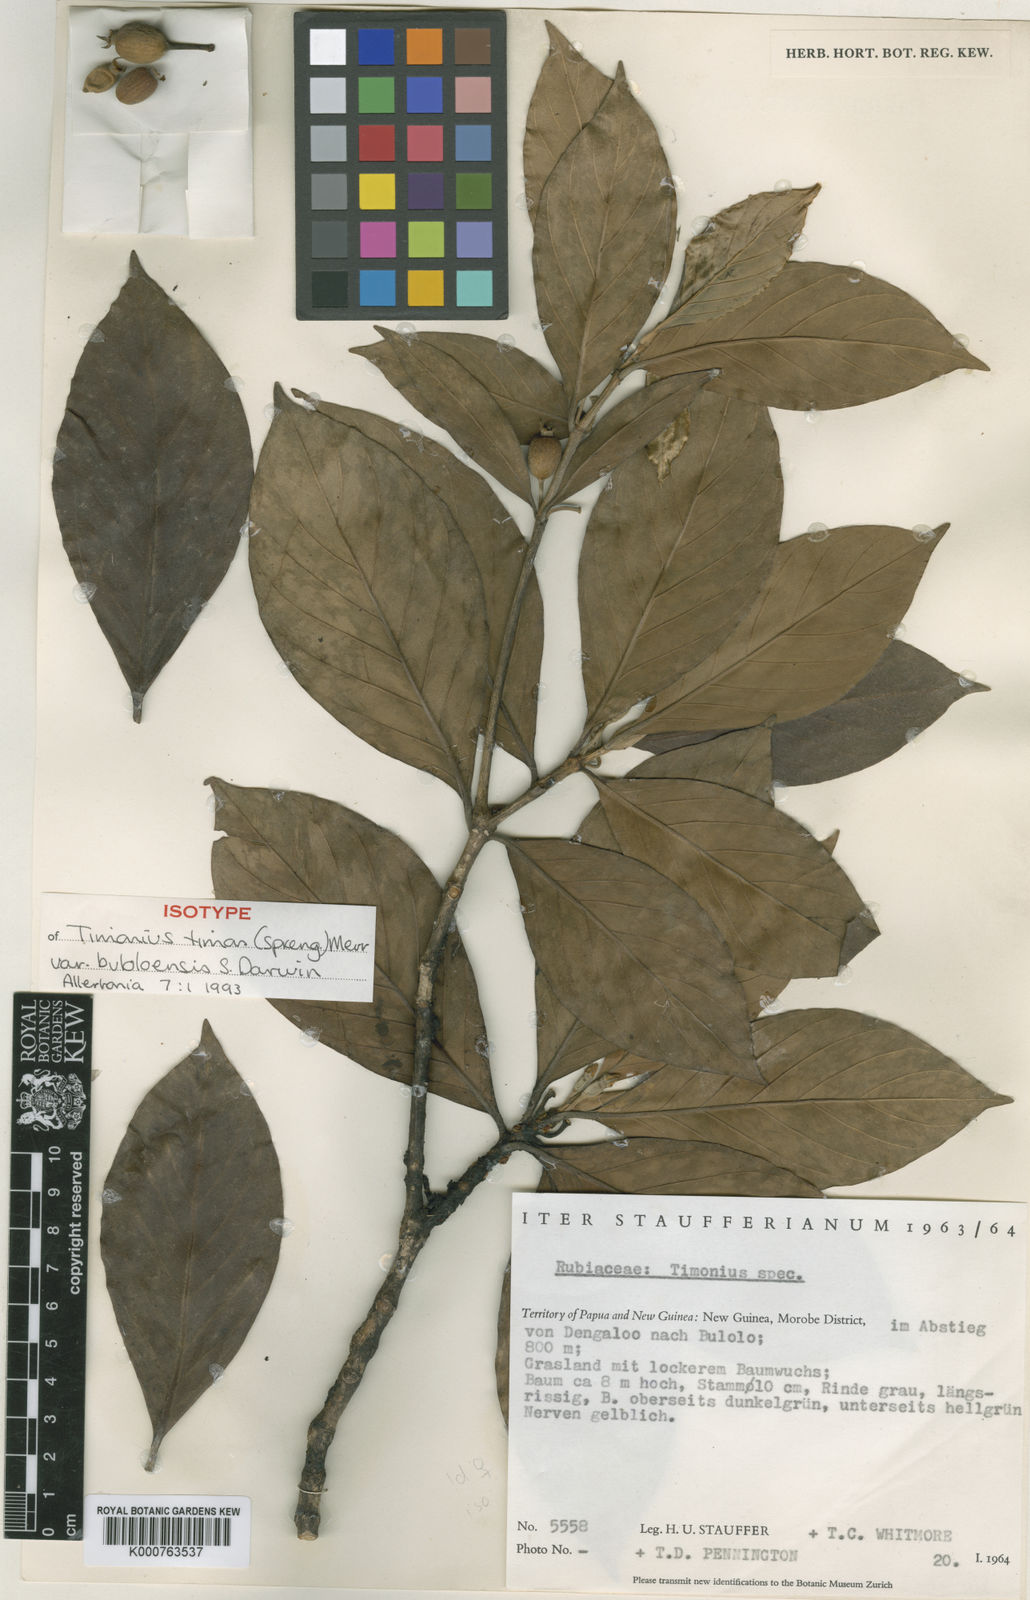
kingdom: Plantae
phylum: Tracheophyta
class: Magnoliopsida
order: Gentianales
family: Rubiaceae
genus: Timonius
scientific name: Timonius timon
